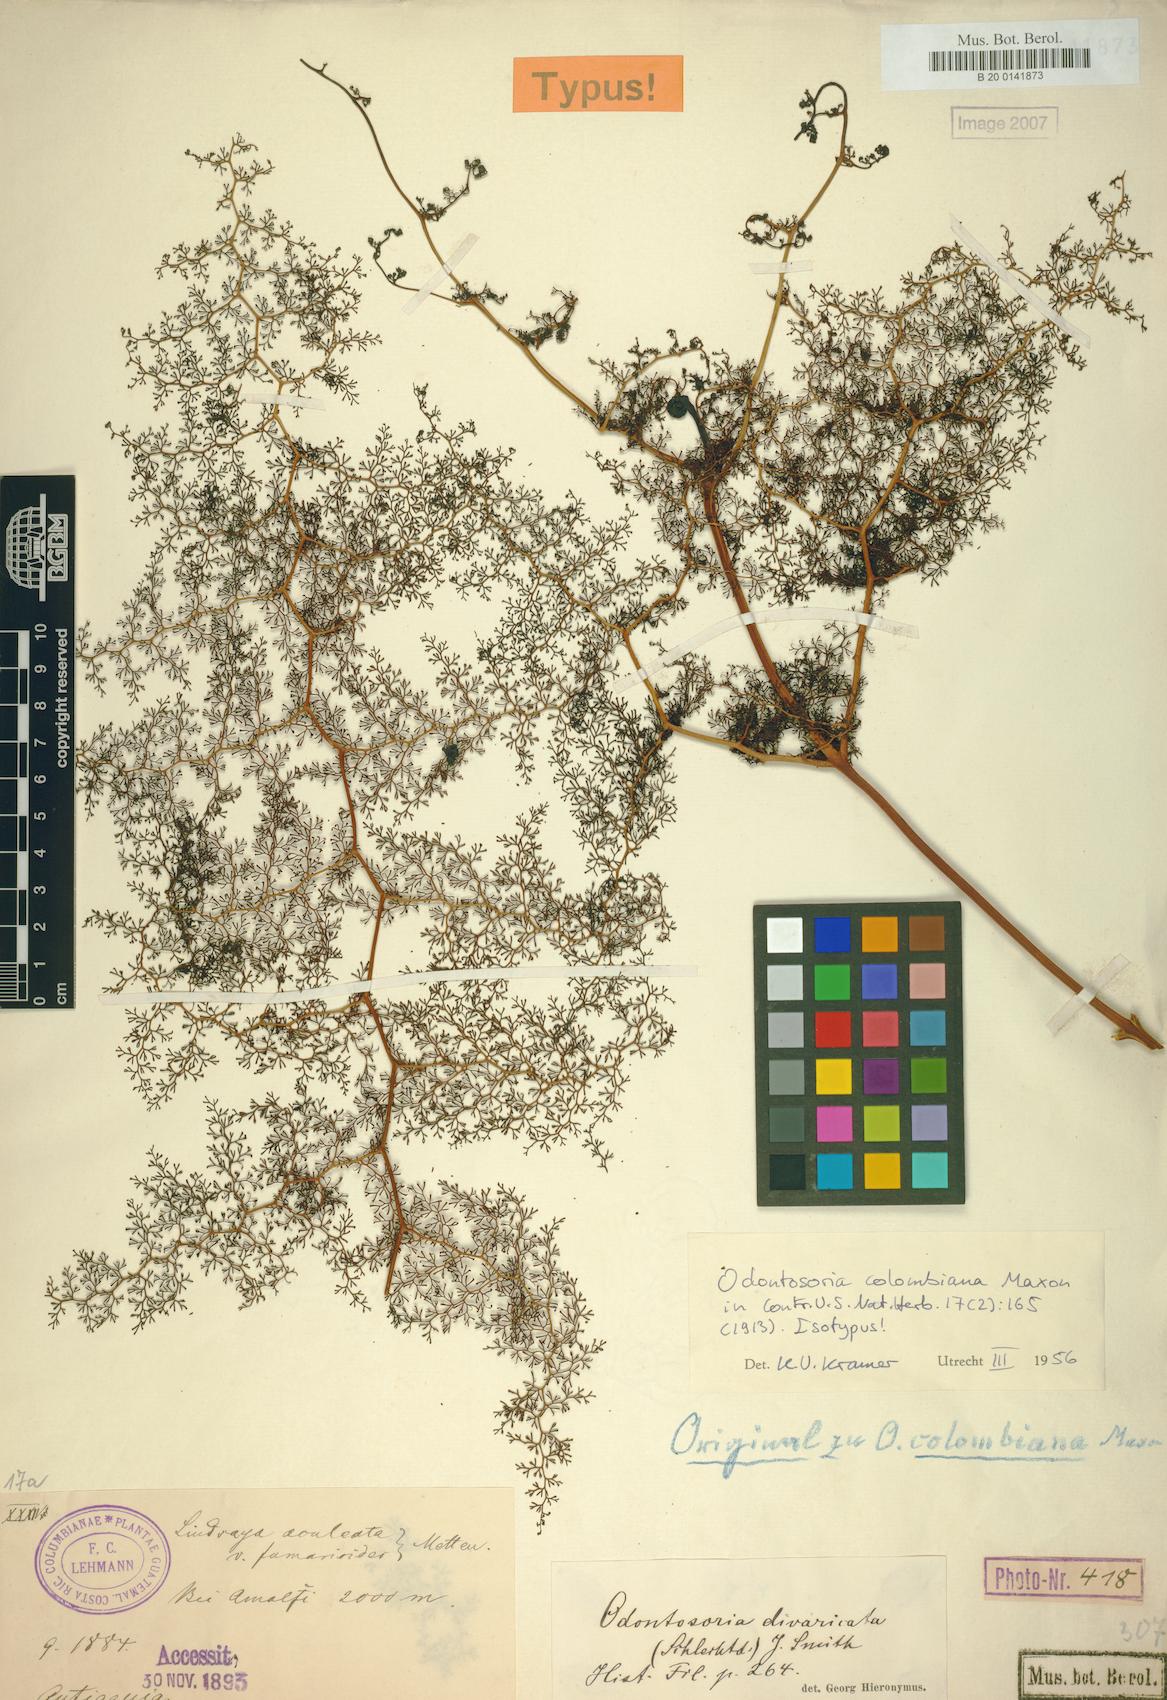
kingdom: Plantae
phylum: Tracheophyta
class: Polypodiopsida
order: Polypodiales
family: Lindsaeaceae
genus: Odontosoria
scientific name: Odontosoria colombiana
